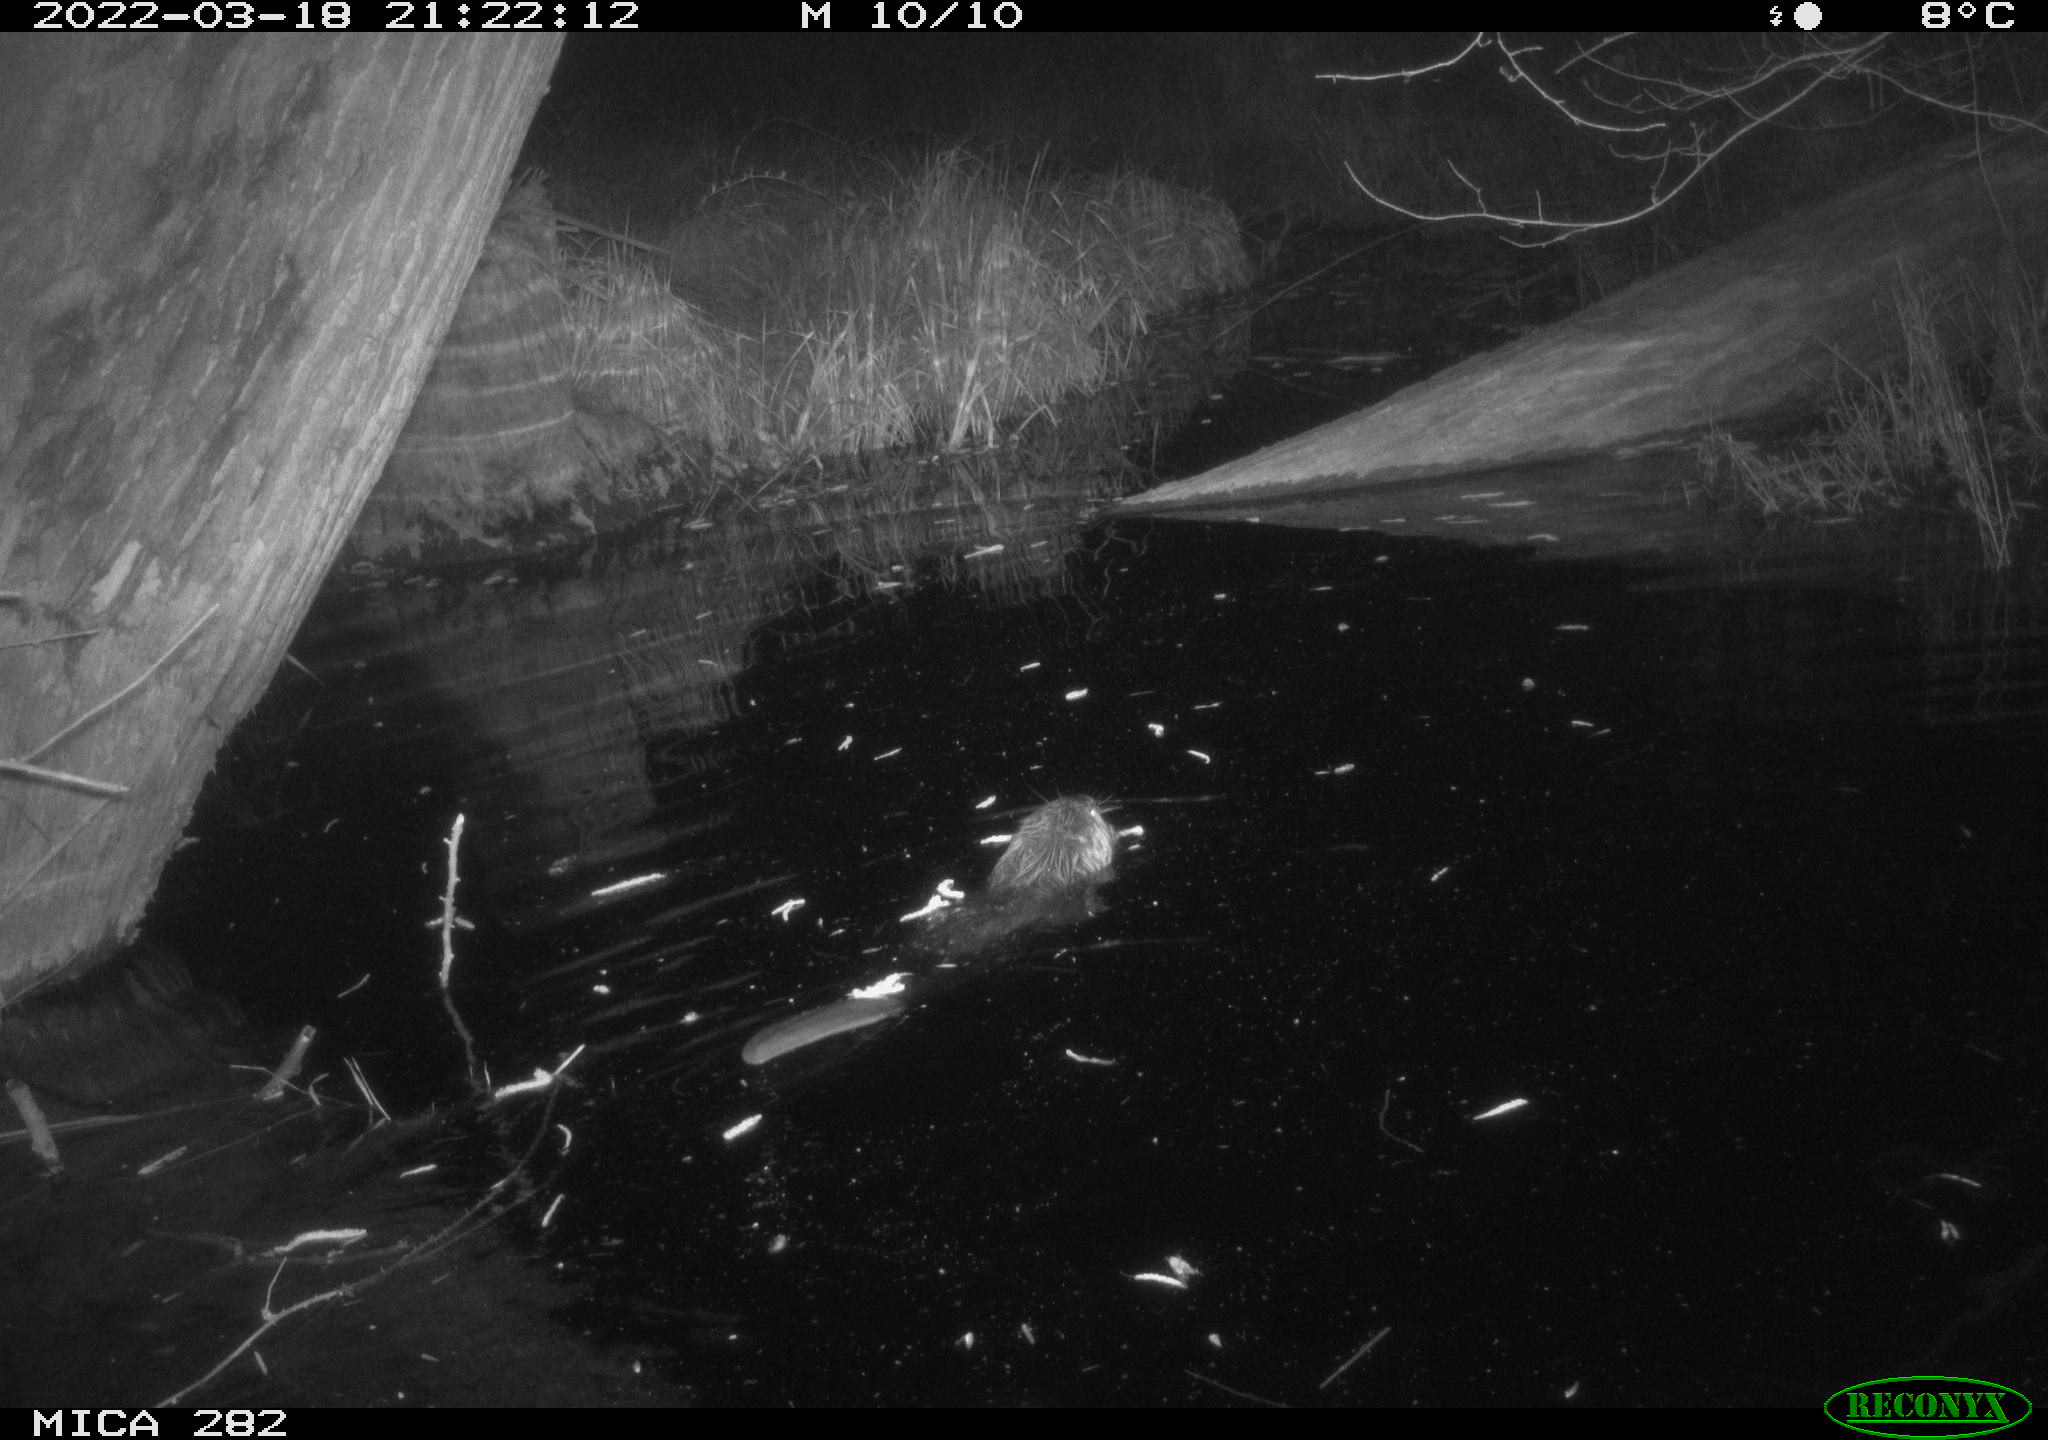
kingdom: Animalia
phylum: Chordata
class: Mammalia
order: Rodentia
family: Castoridae
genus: Castor
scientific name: Castor fiber
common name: Eurasian beaver
